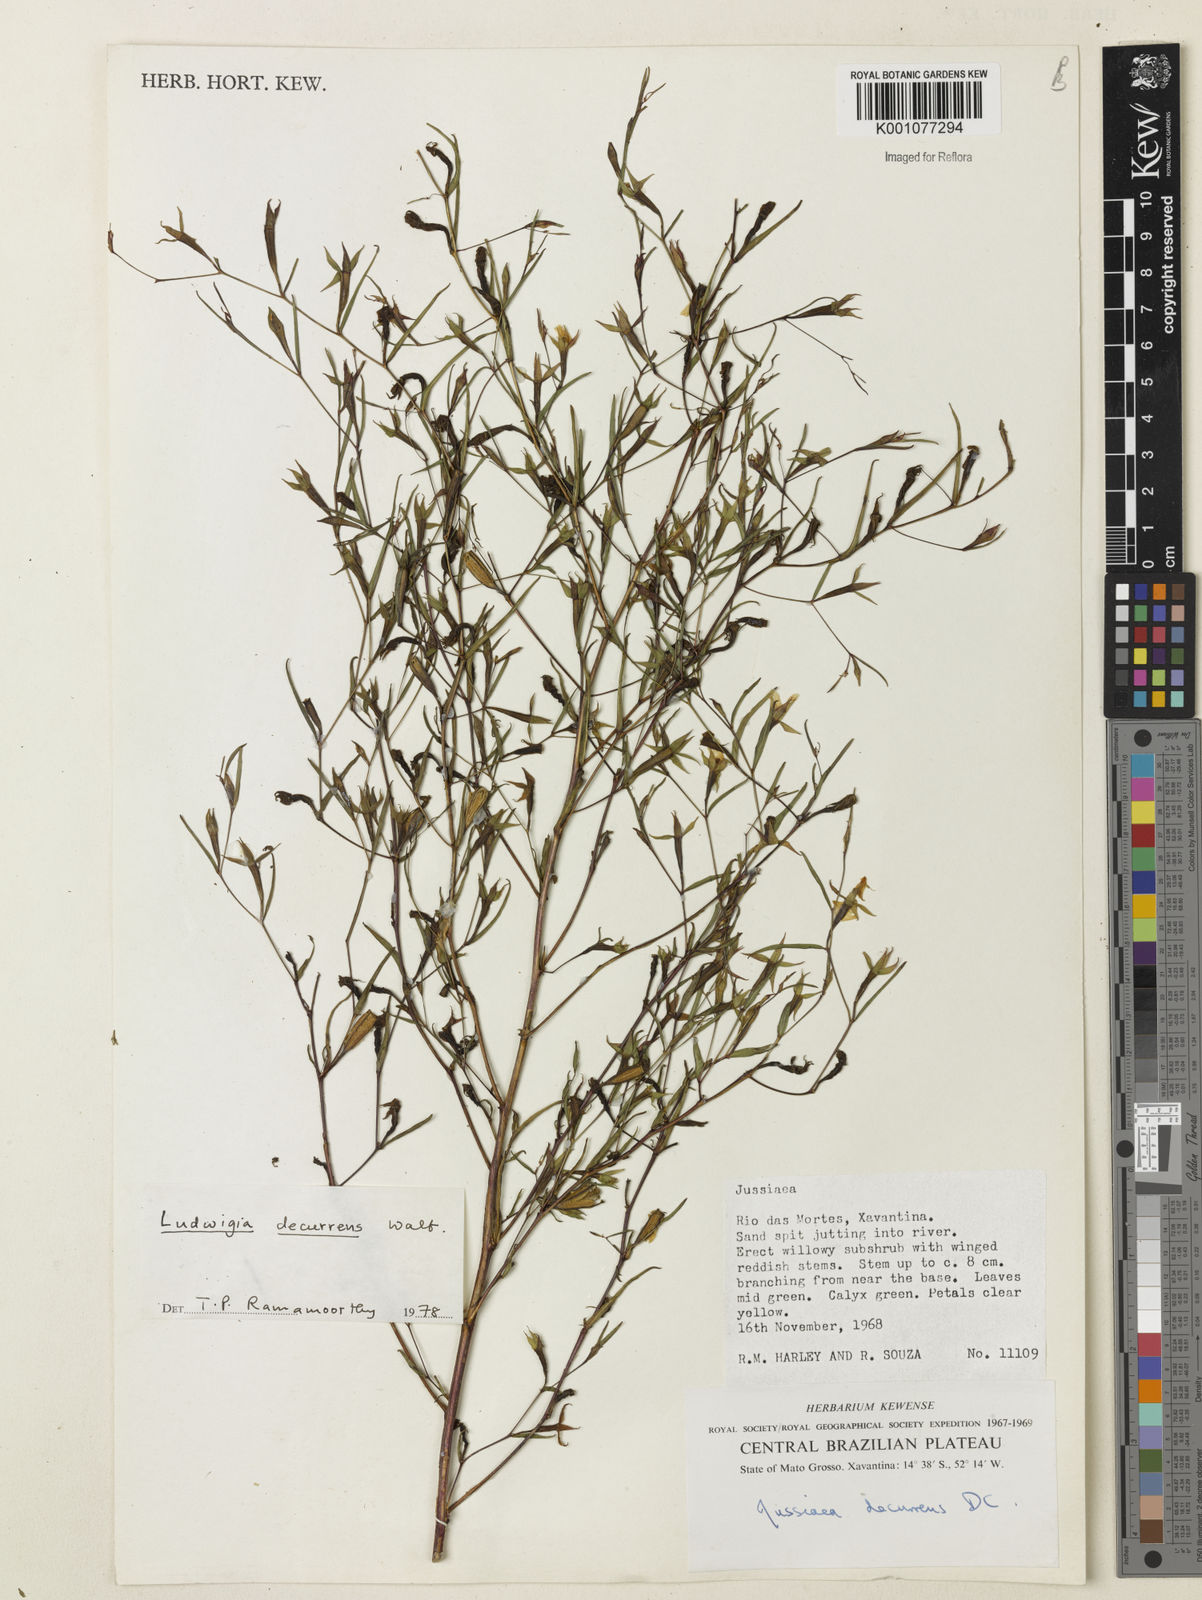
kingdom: Plantae
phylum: Tracheophyta
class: Magnoliopsida
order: Myrtales
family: Onagraceae
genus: Ludwigia
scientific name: Ludwigia decurrens
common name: Winged water-primrose
